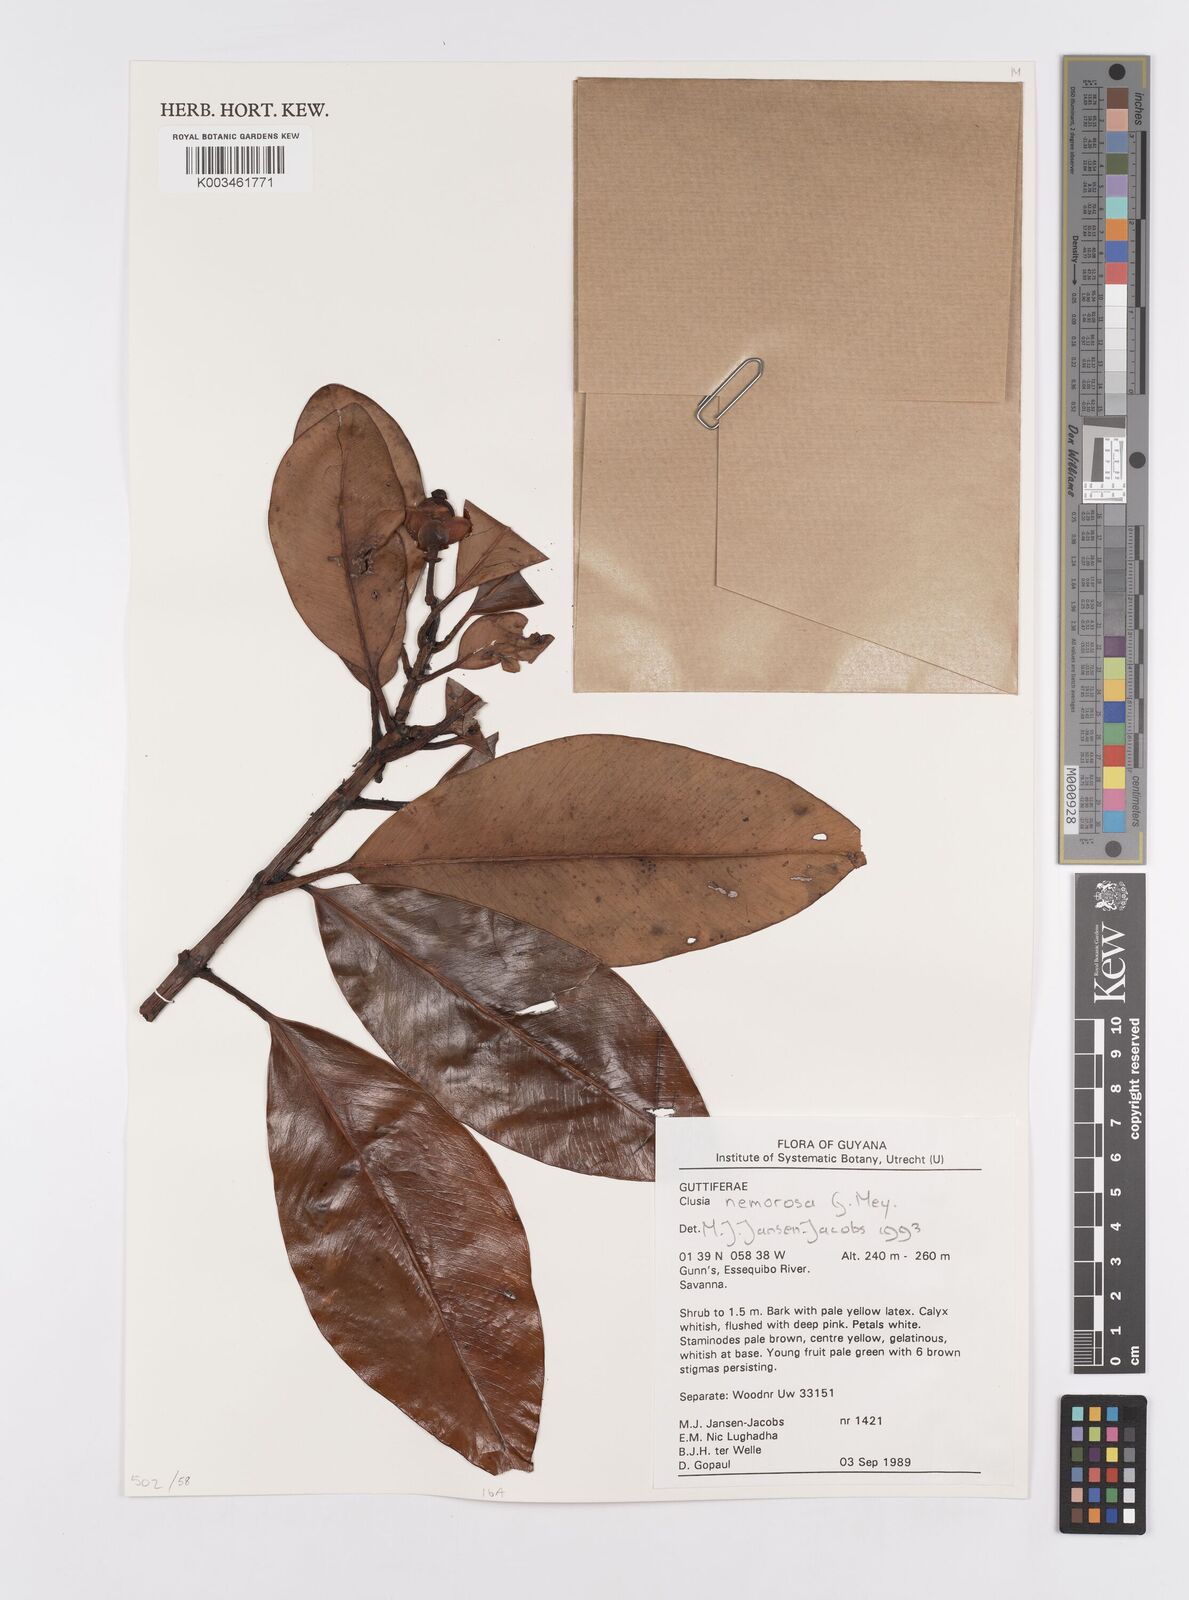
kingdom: Plantae
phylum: Tracheophyta
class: Magnoliopsida
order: Malpighiales
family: Clusiaceae
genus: Clusia
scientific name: Clusia nemorosa
